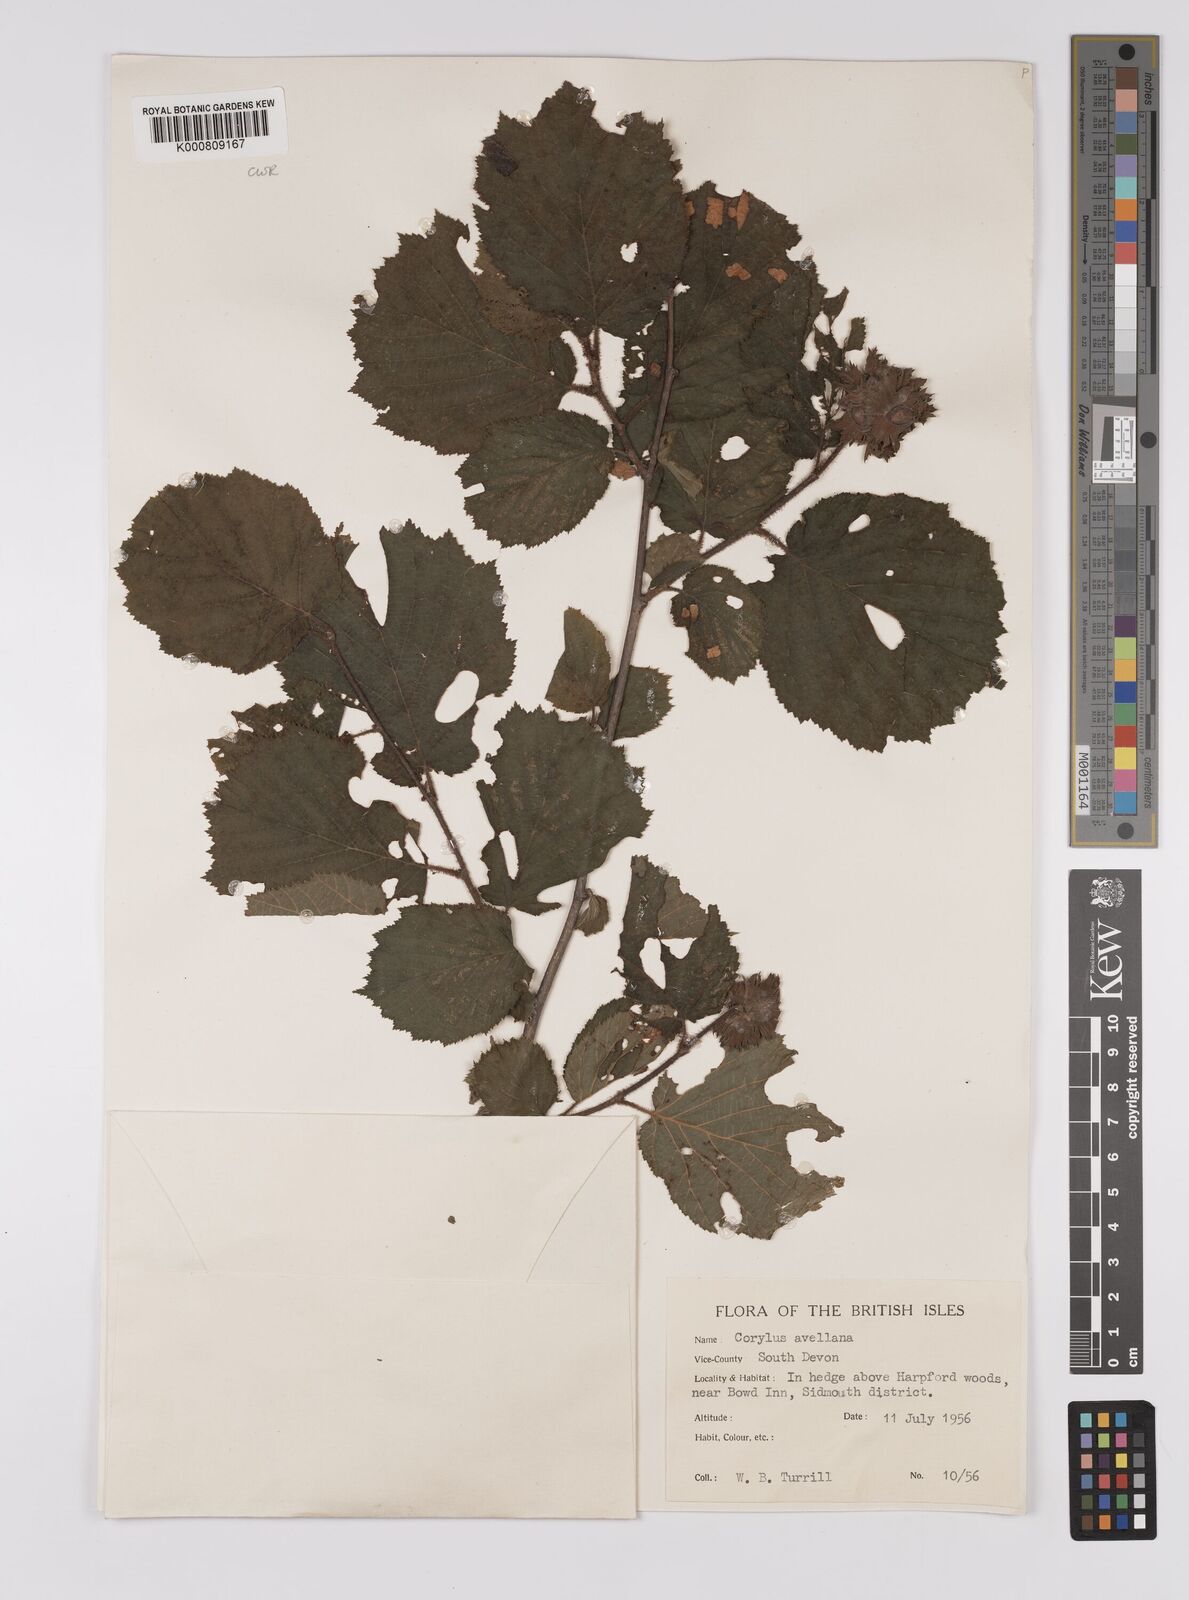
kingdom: Plantae
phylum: Tracheophyta
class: Magnoliopsida
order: Fagales
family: Betulaceae
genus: Corylus
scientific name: Corylus avellana
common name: European hazel
